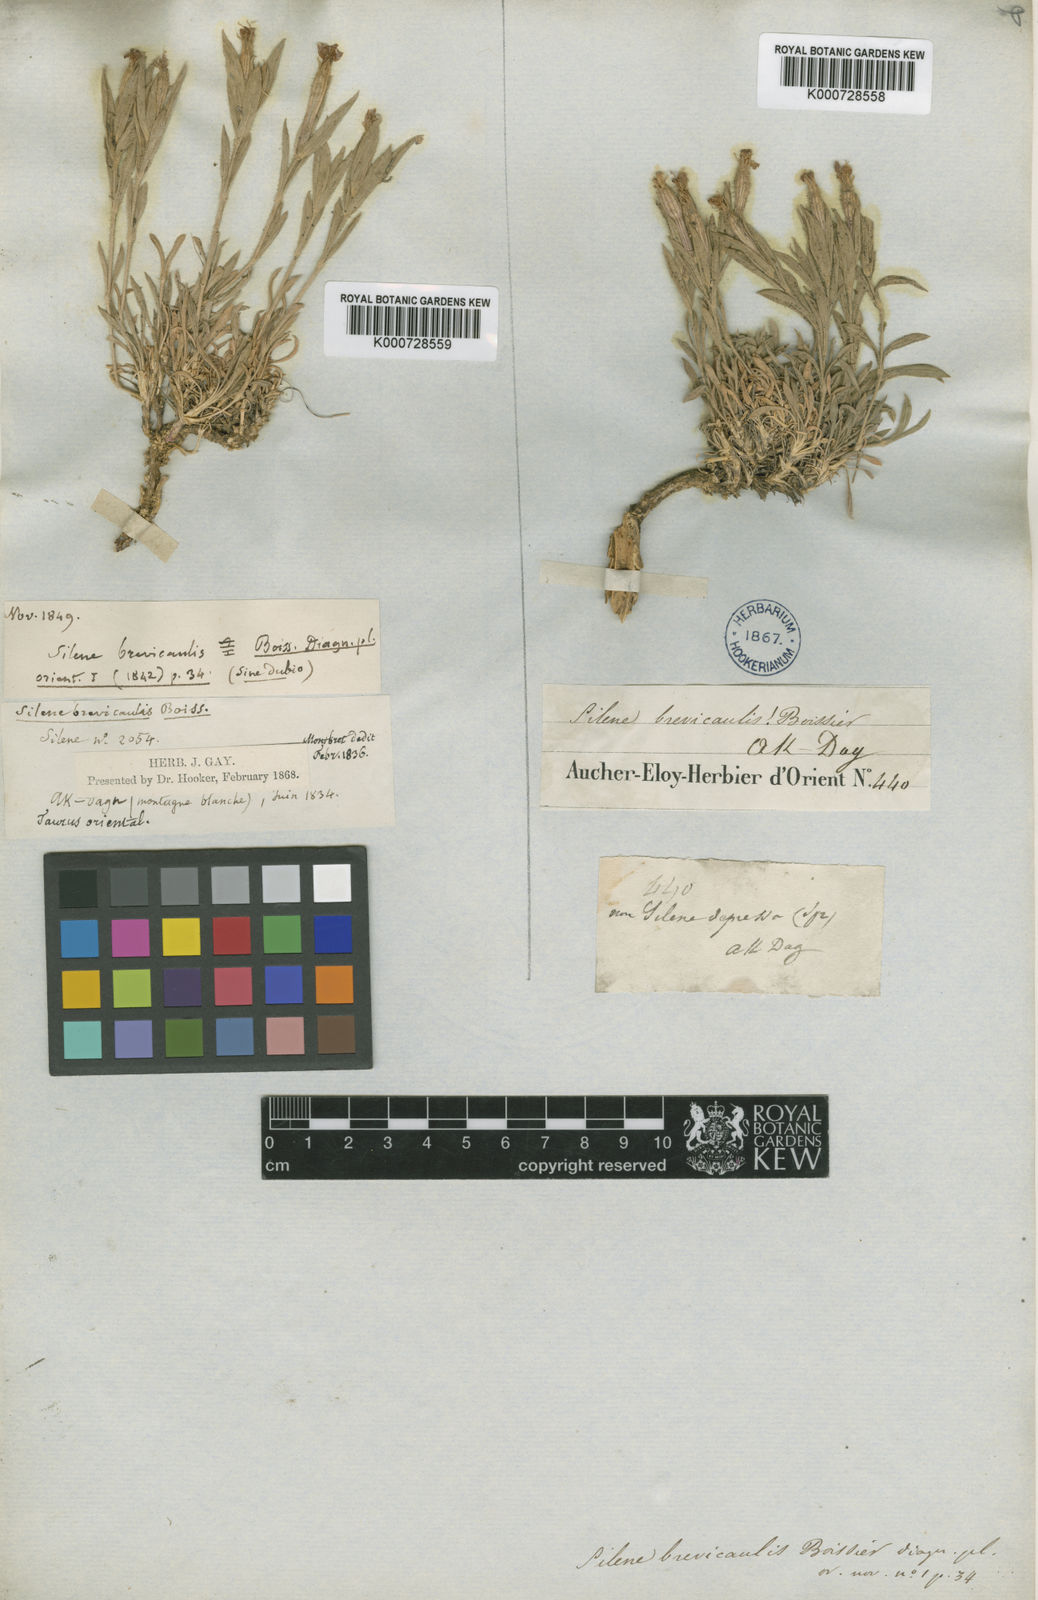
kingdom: Plantae
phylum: Tracheophyta
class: Magnoliopsida
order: Caryophyllales
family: Caryophyllaceae
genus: Silene
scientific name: Silene brevicaulis
